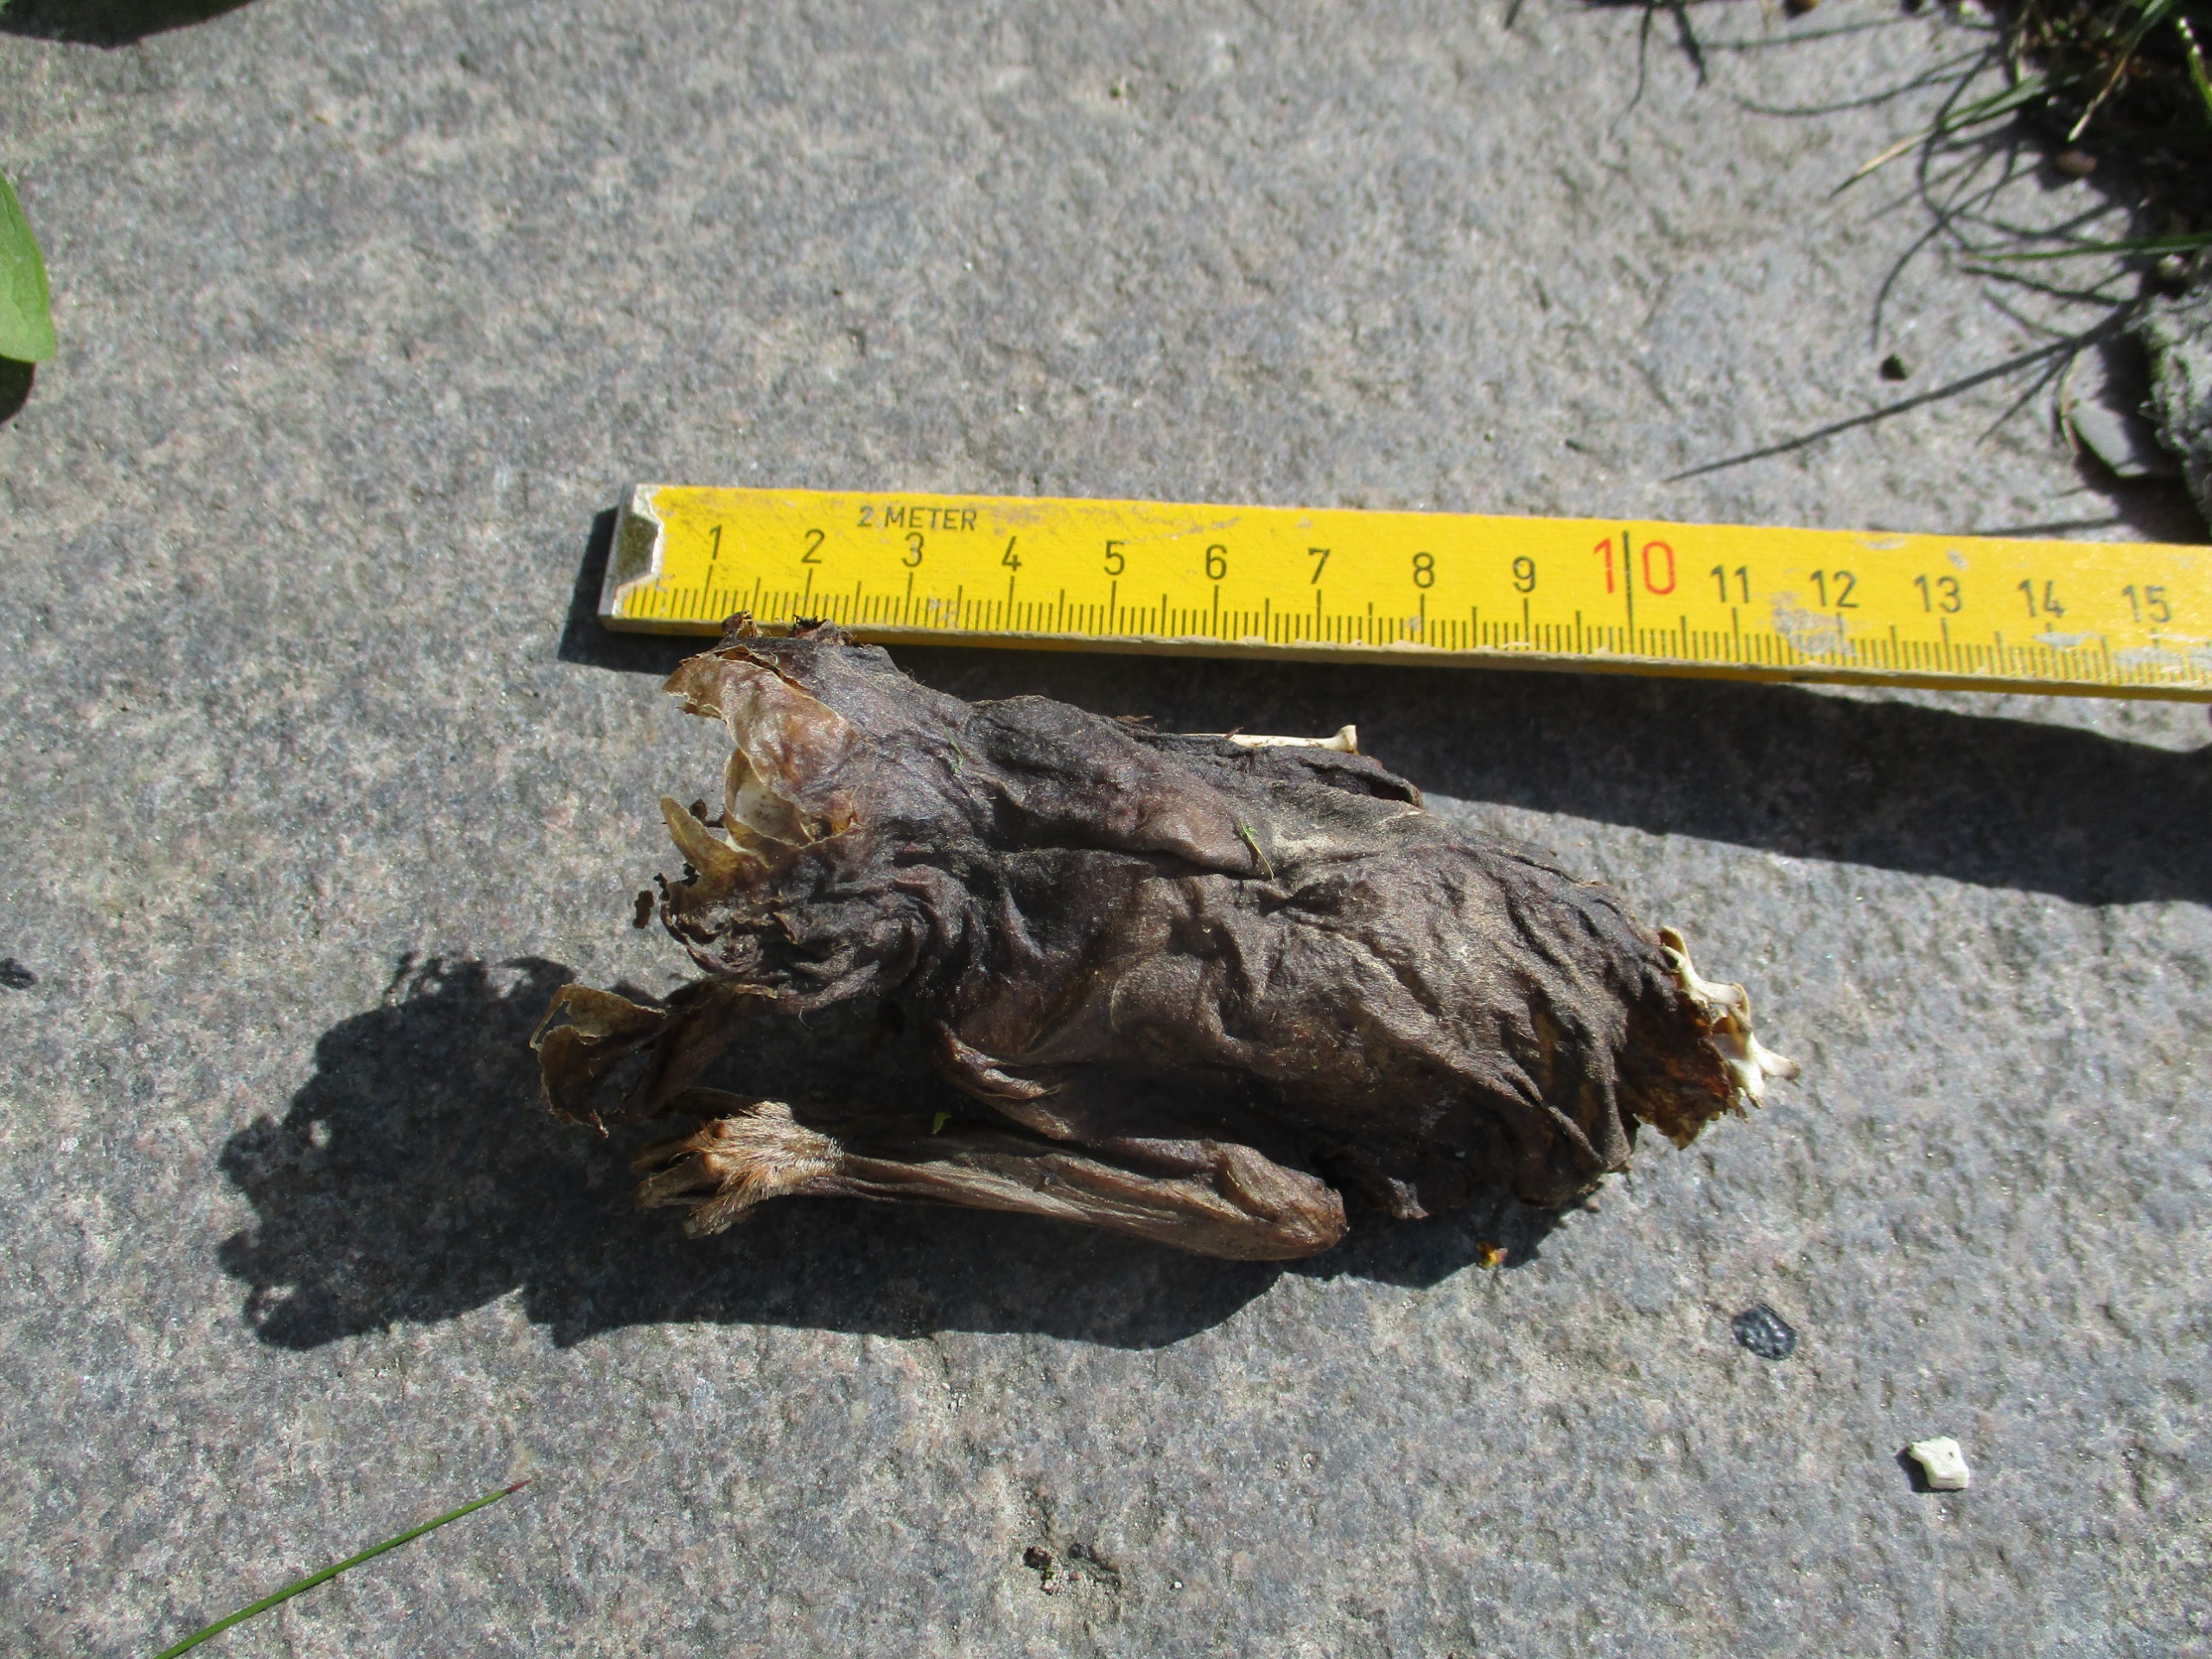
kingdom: Animalia
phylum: Chordata
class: Mammalia
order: Chiroptera
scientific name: Chiroptera
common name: Flagermus
